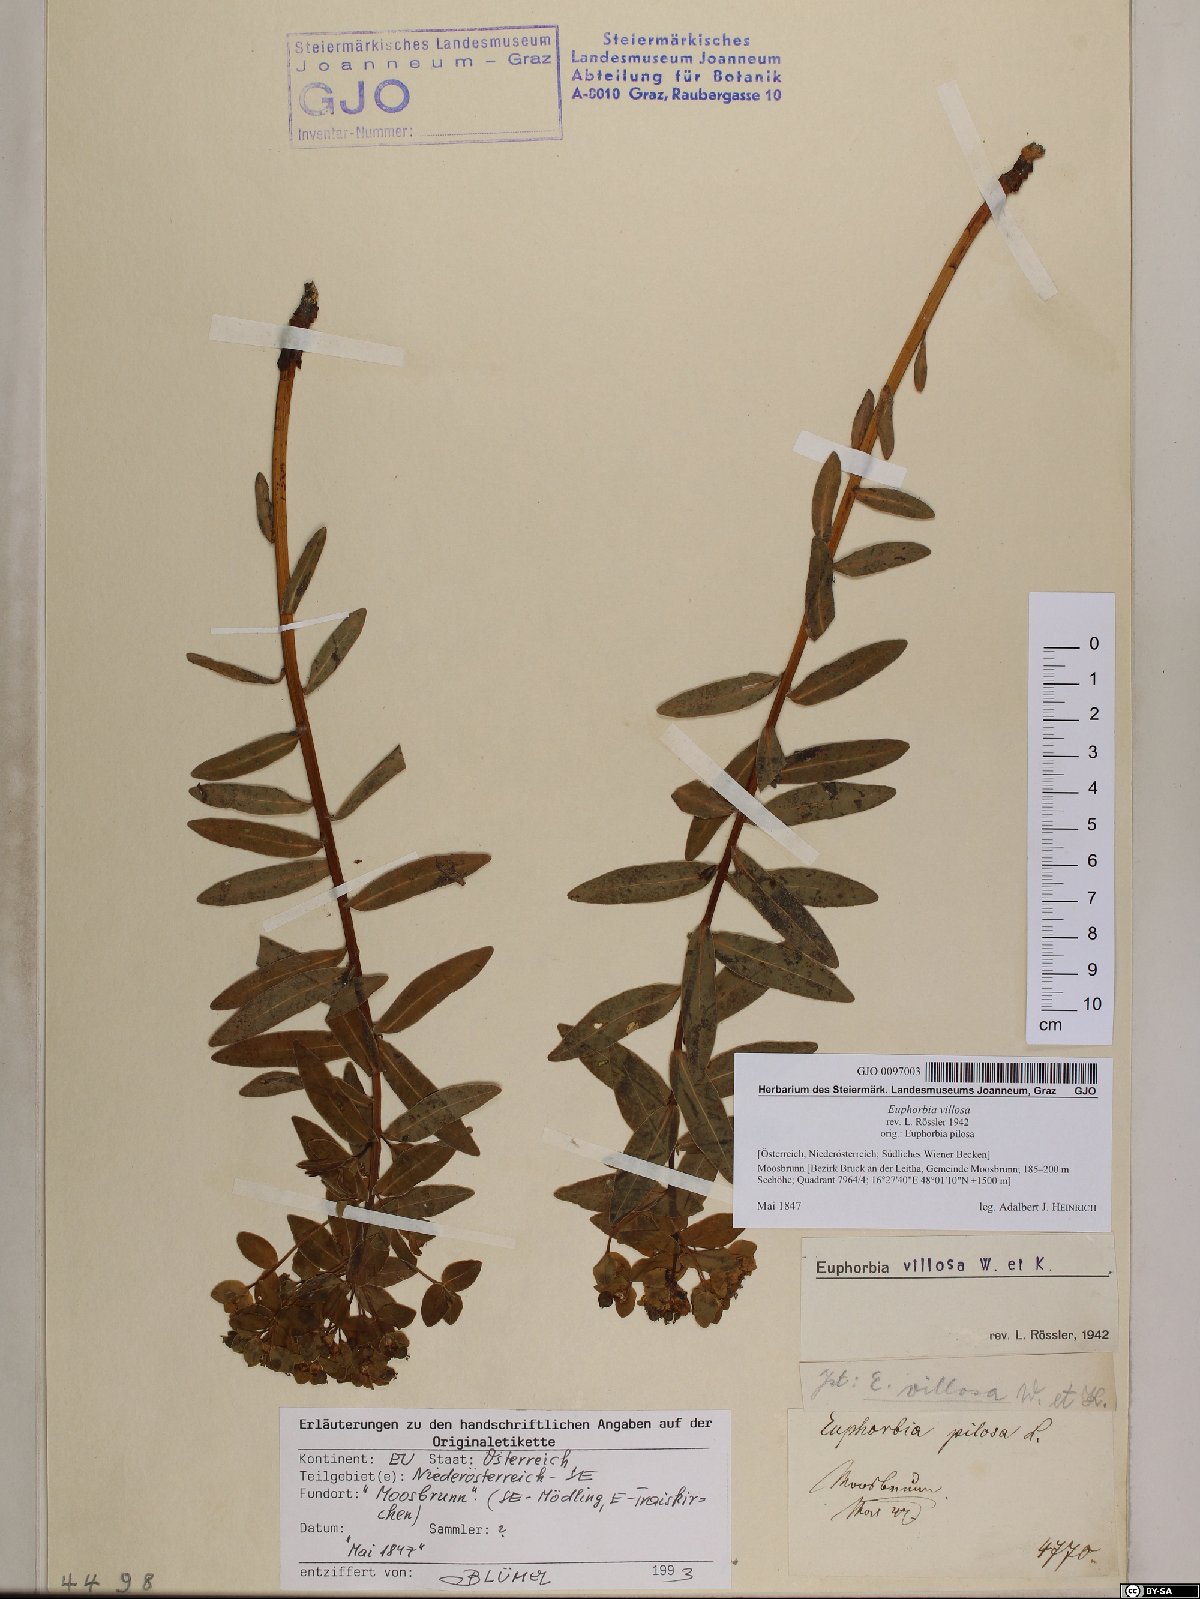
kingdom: Plantae
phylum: Tracheophyta
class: Magnoliopsida
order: Malpighiales
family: Euphorbiaceae
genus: Euphorbia
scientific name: Euphorbia illirica
